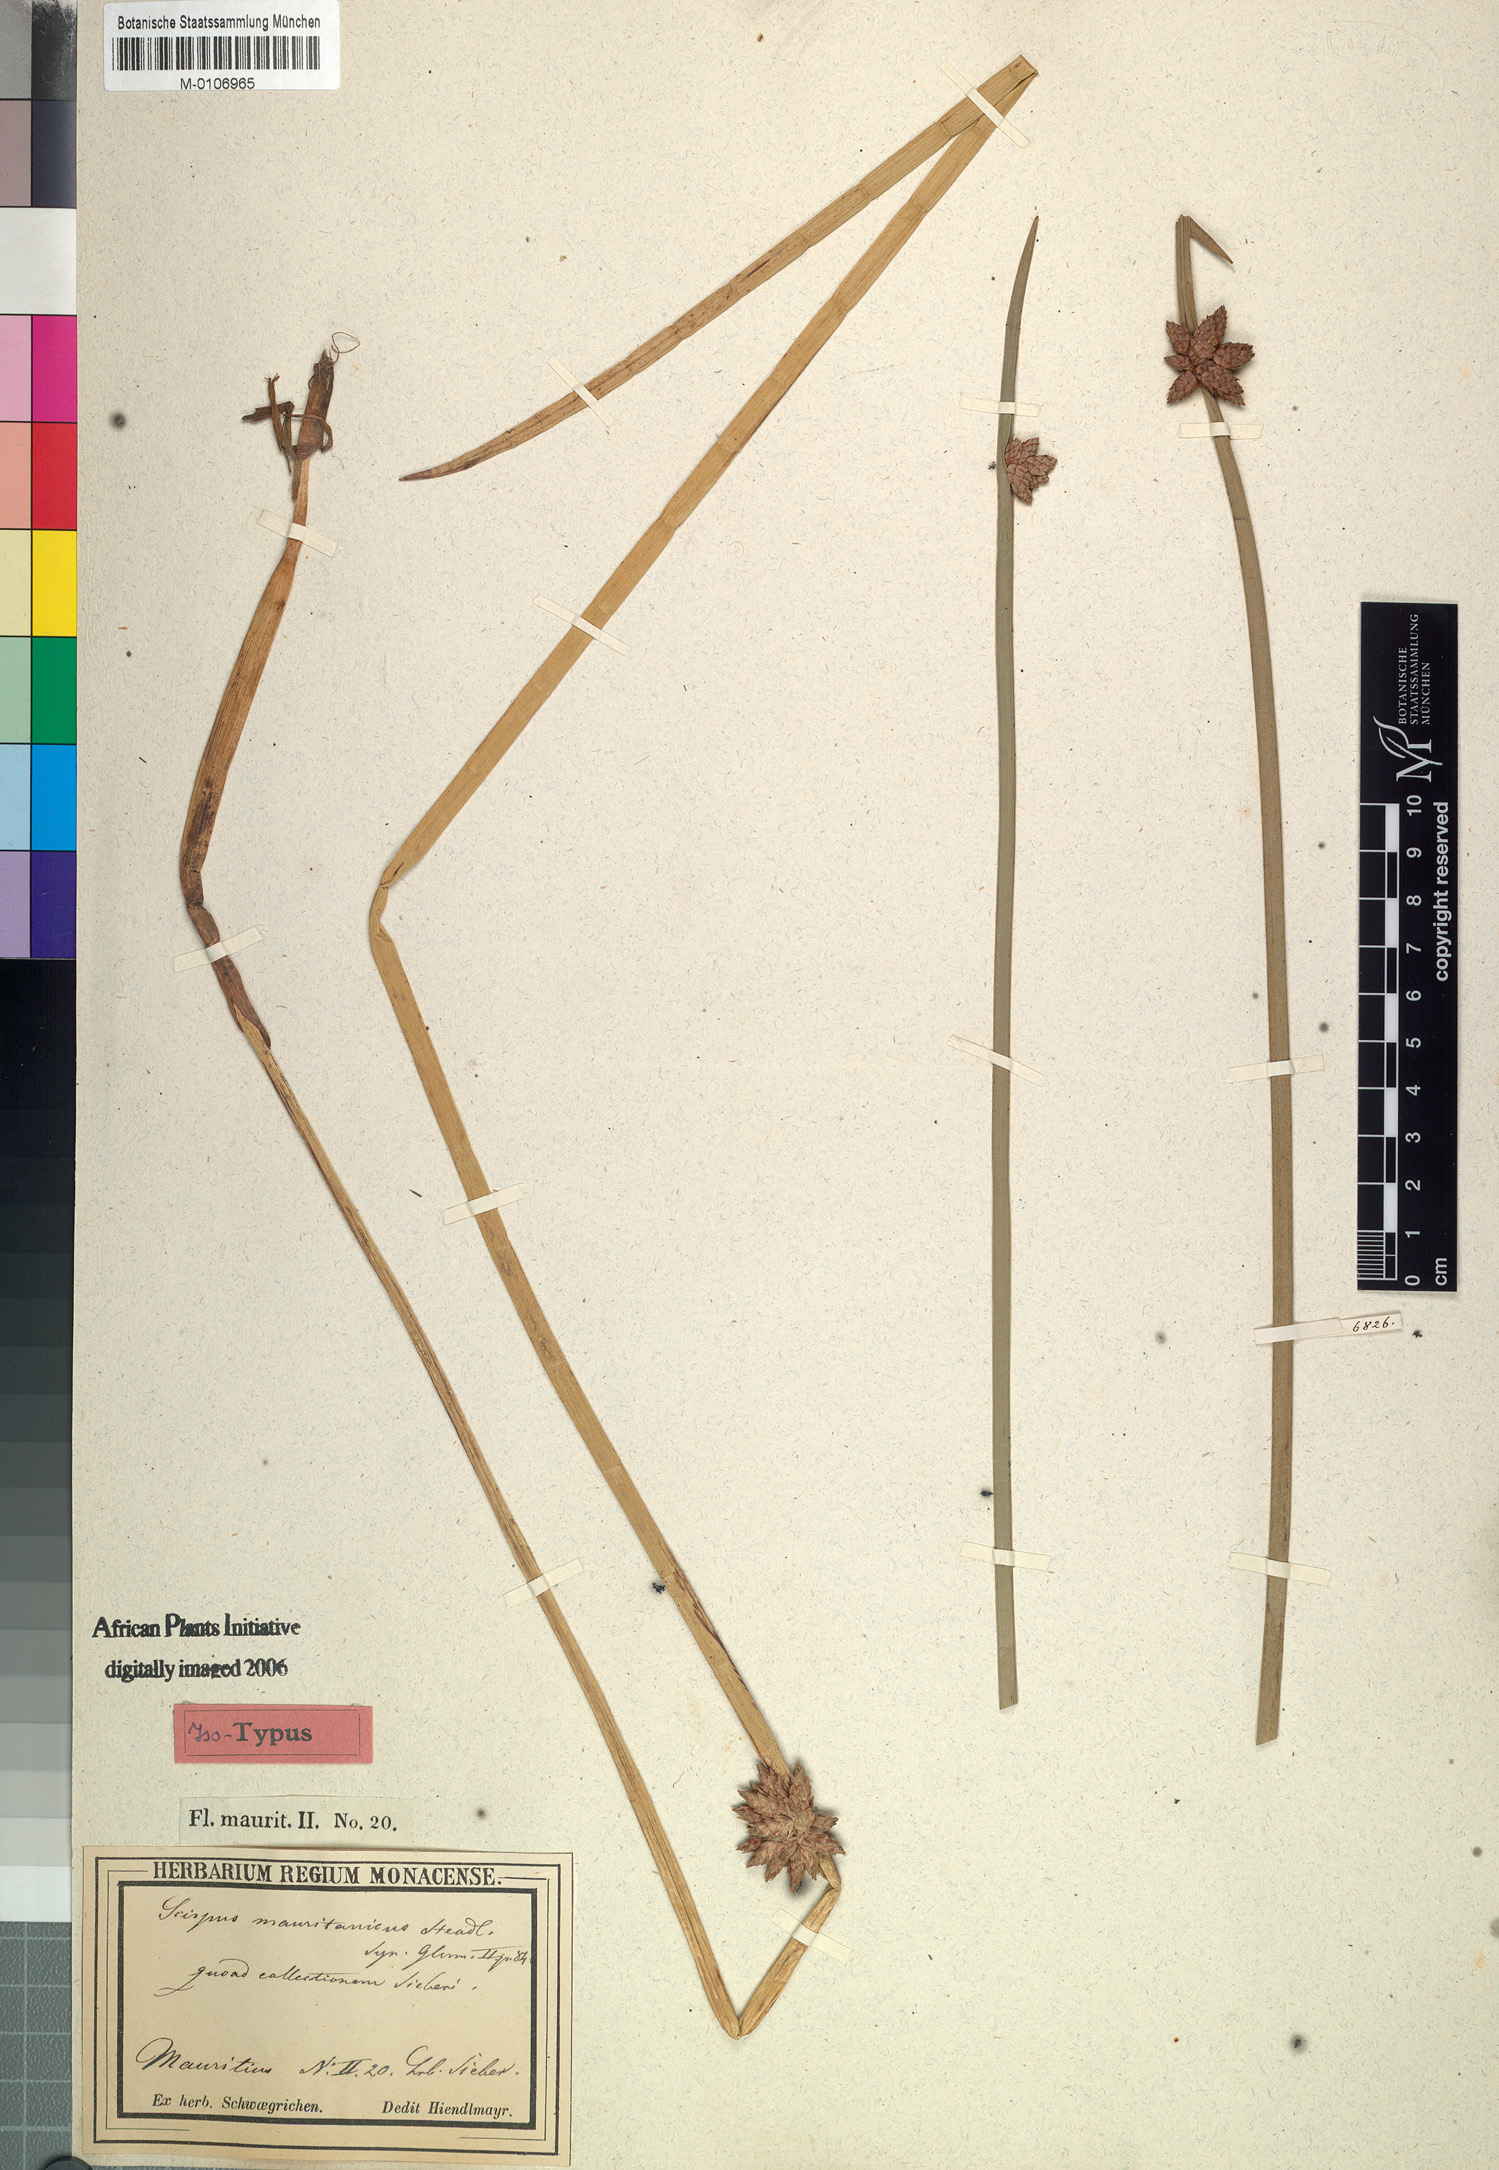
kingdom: Plantae
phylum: Tracheophyta
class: Liliopsida
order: Poales
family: Cyperaceae
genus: Schoenoplectiella
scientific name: Schoenoplectiella mucronata
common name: Bog bulrush
